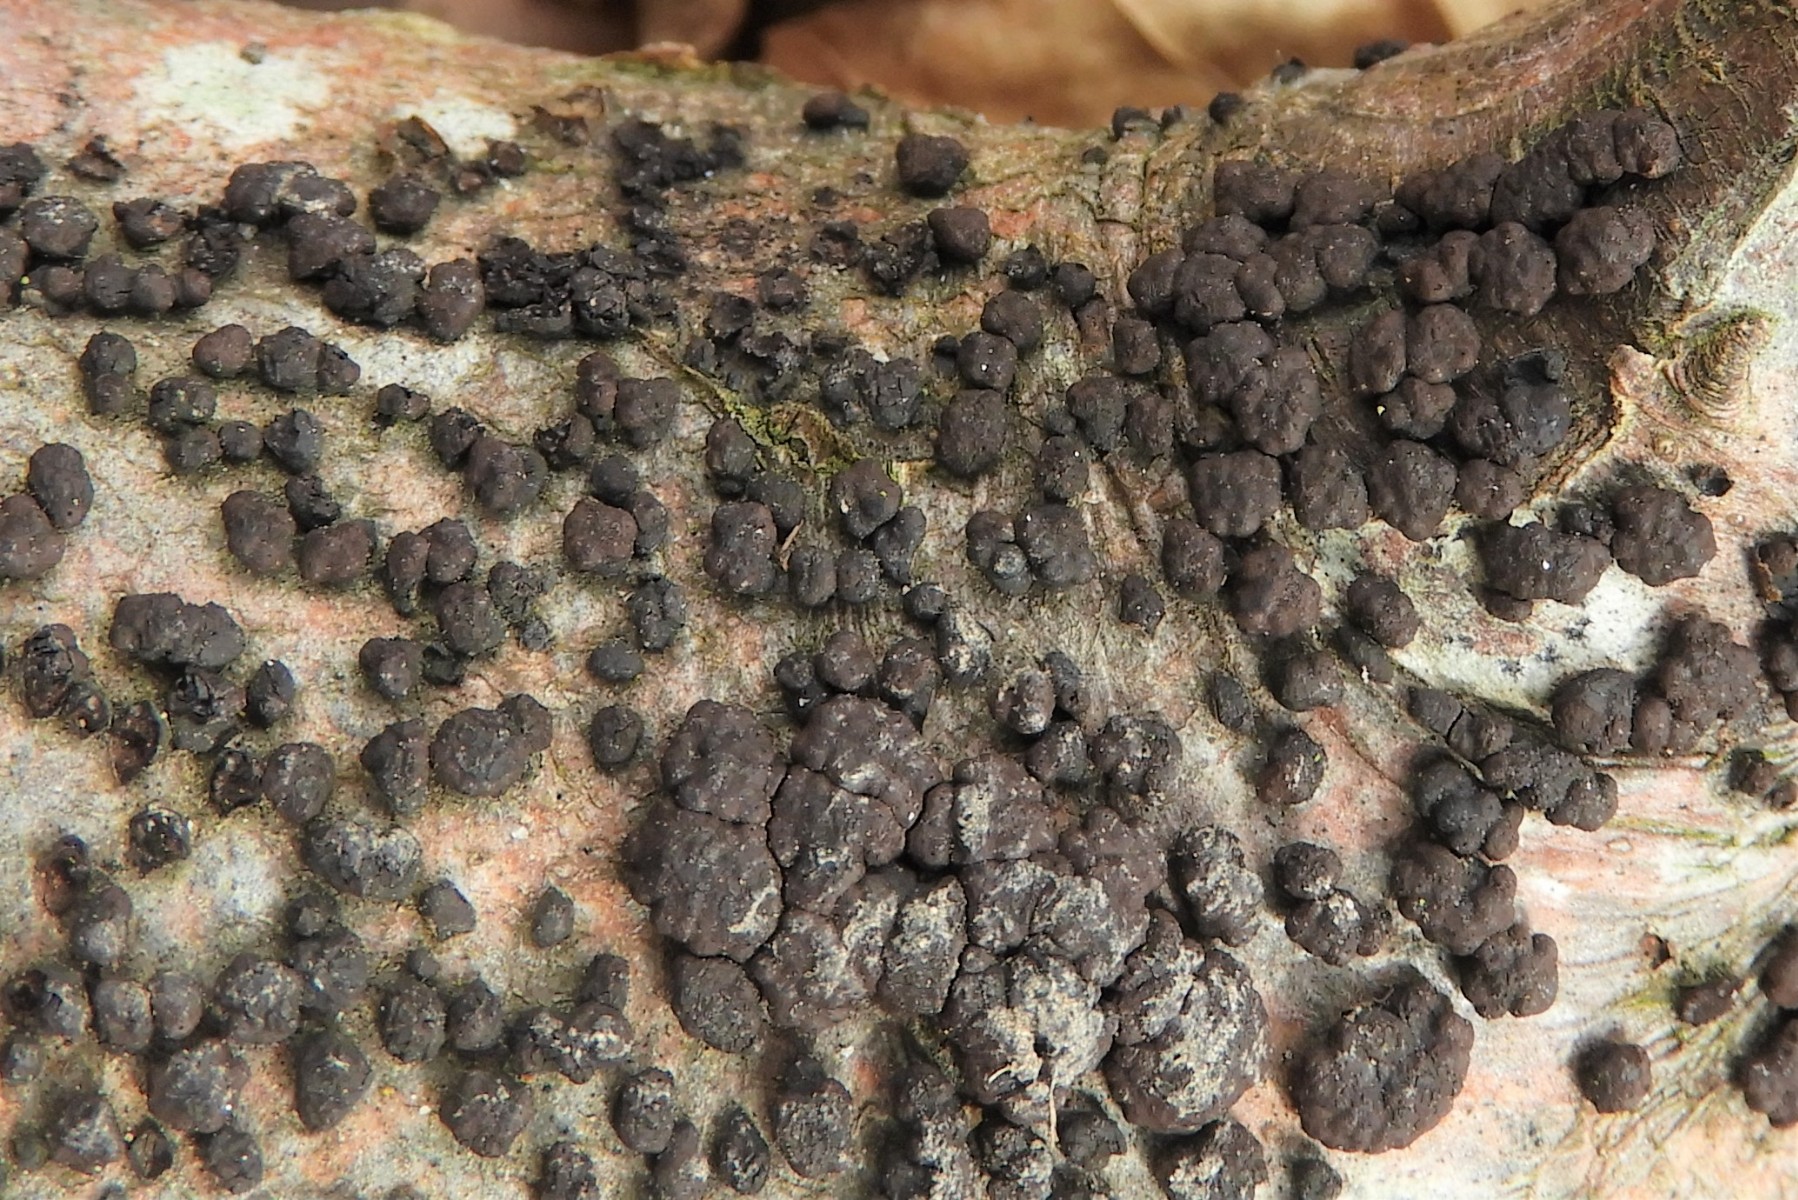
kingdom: Fungi
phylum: Ascomycota
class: Sordariomycetes
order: Xylariales
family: Hypoxylaceae
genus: Jackrogersella
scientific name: Jackrogersella cohaerens
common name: sammenflydende kulbær
